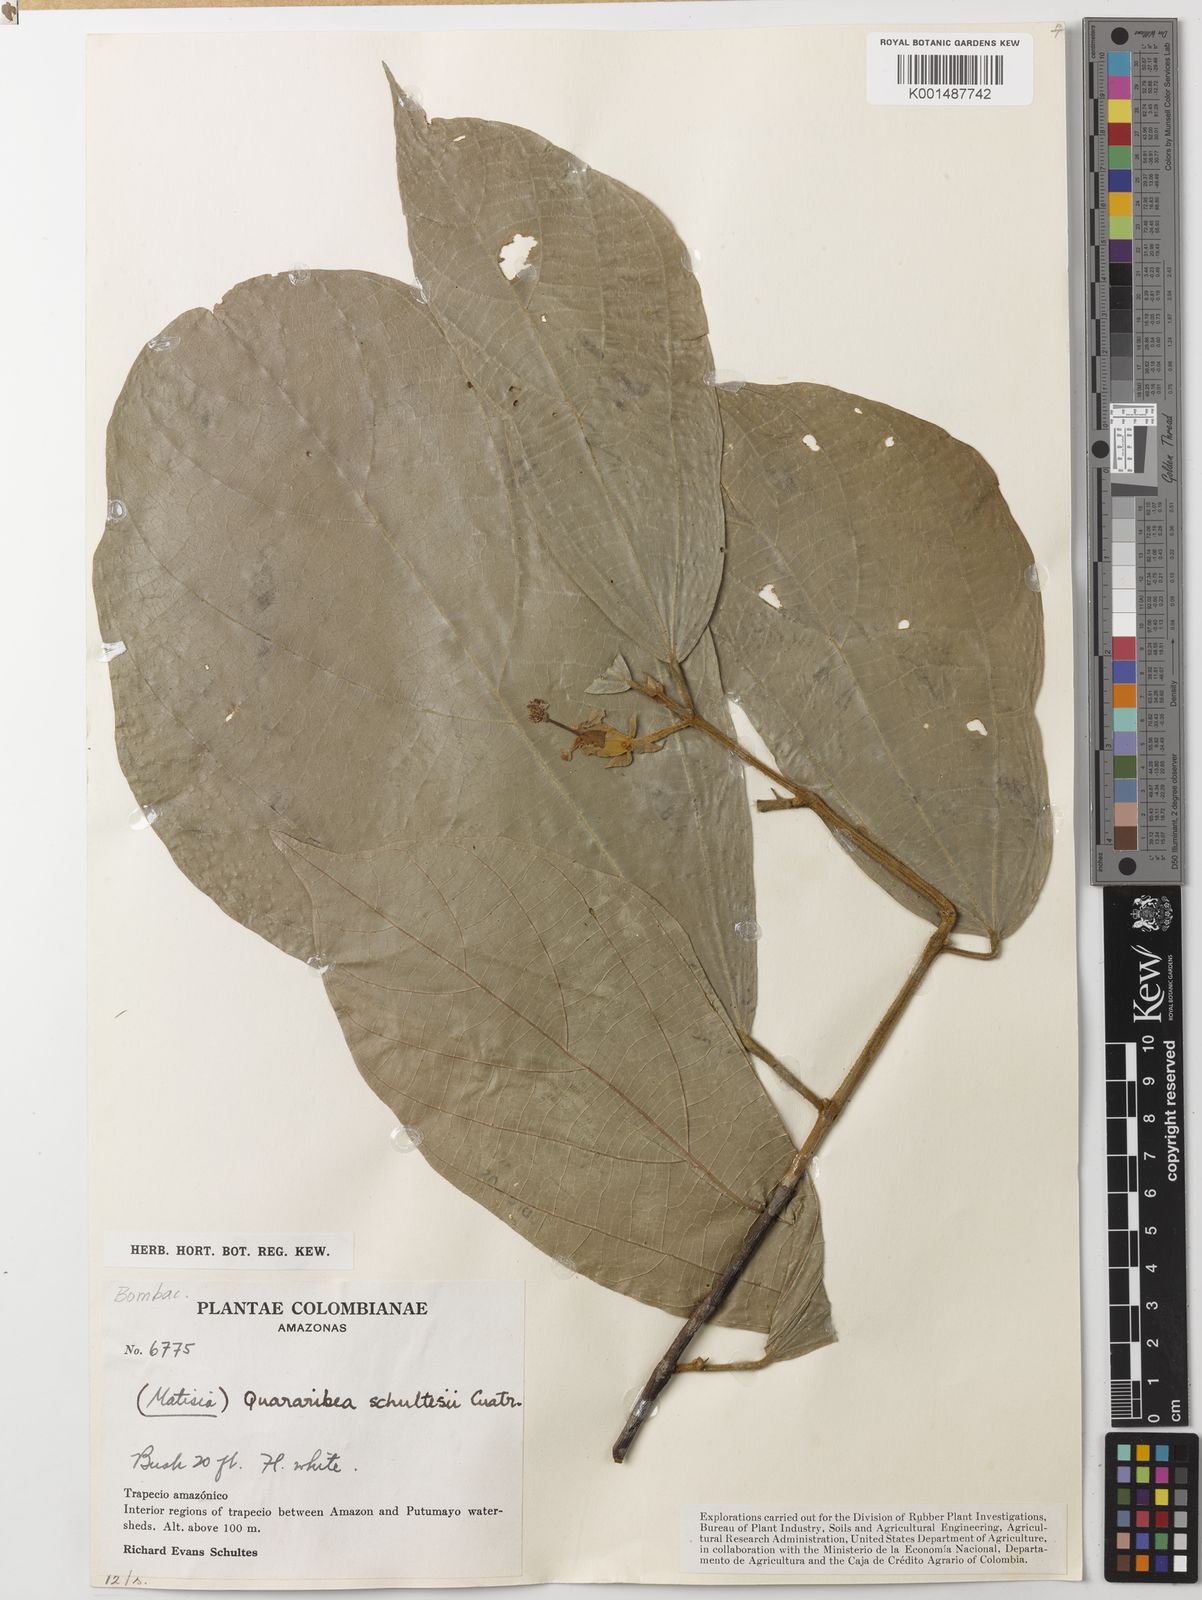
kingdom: Plantae
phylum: Tracheophyta
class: Magnoliopsida
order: Malvales
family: Malvaceae
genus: Matisia
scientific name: Matisia bracteolosa
